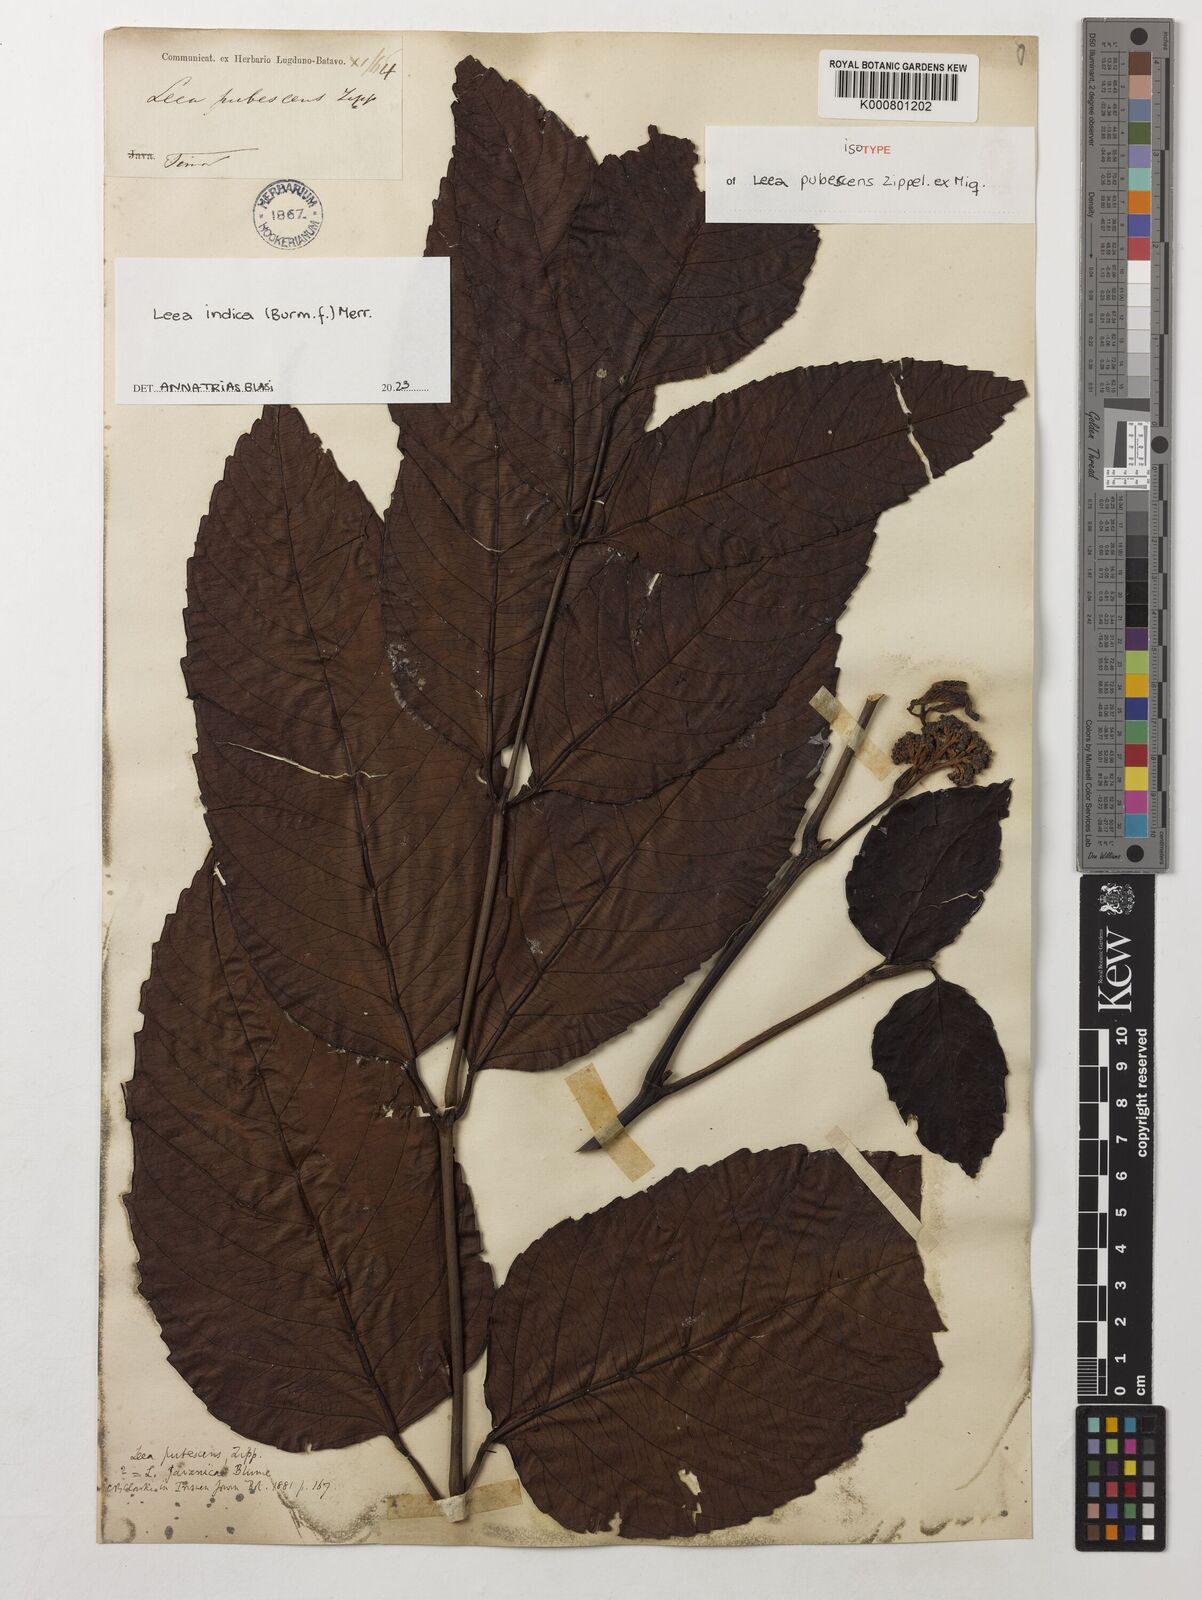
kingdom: Plantae
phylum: Tracheophyta
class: Magnoliopsida
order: Vitales
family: Vitaceae
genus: Leea
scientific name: Leea indica
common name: Bandicoot-berry
